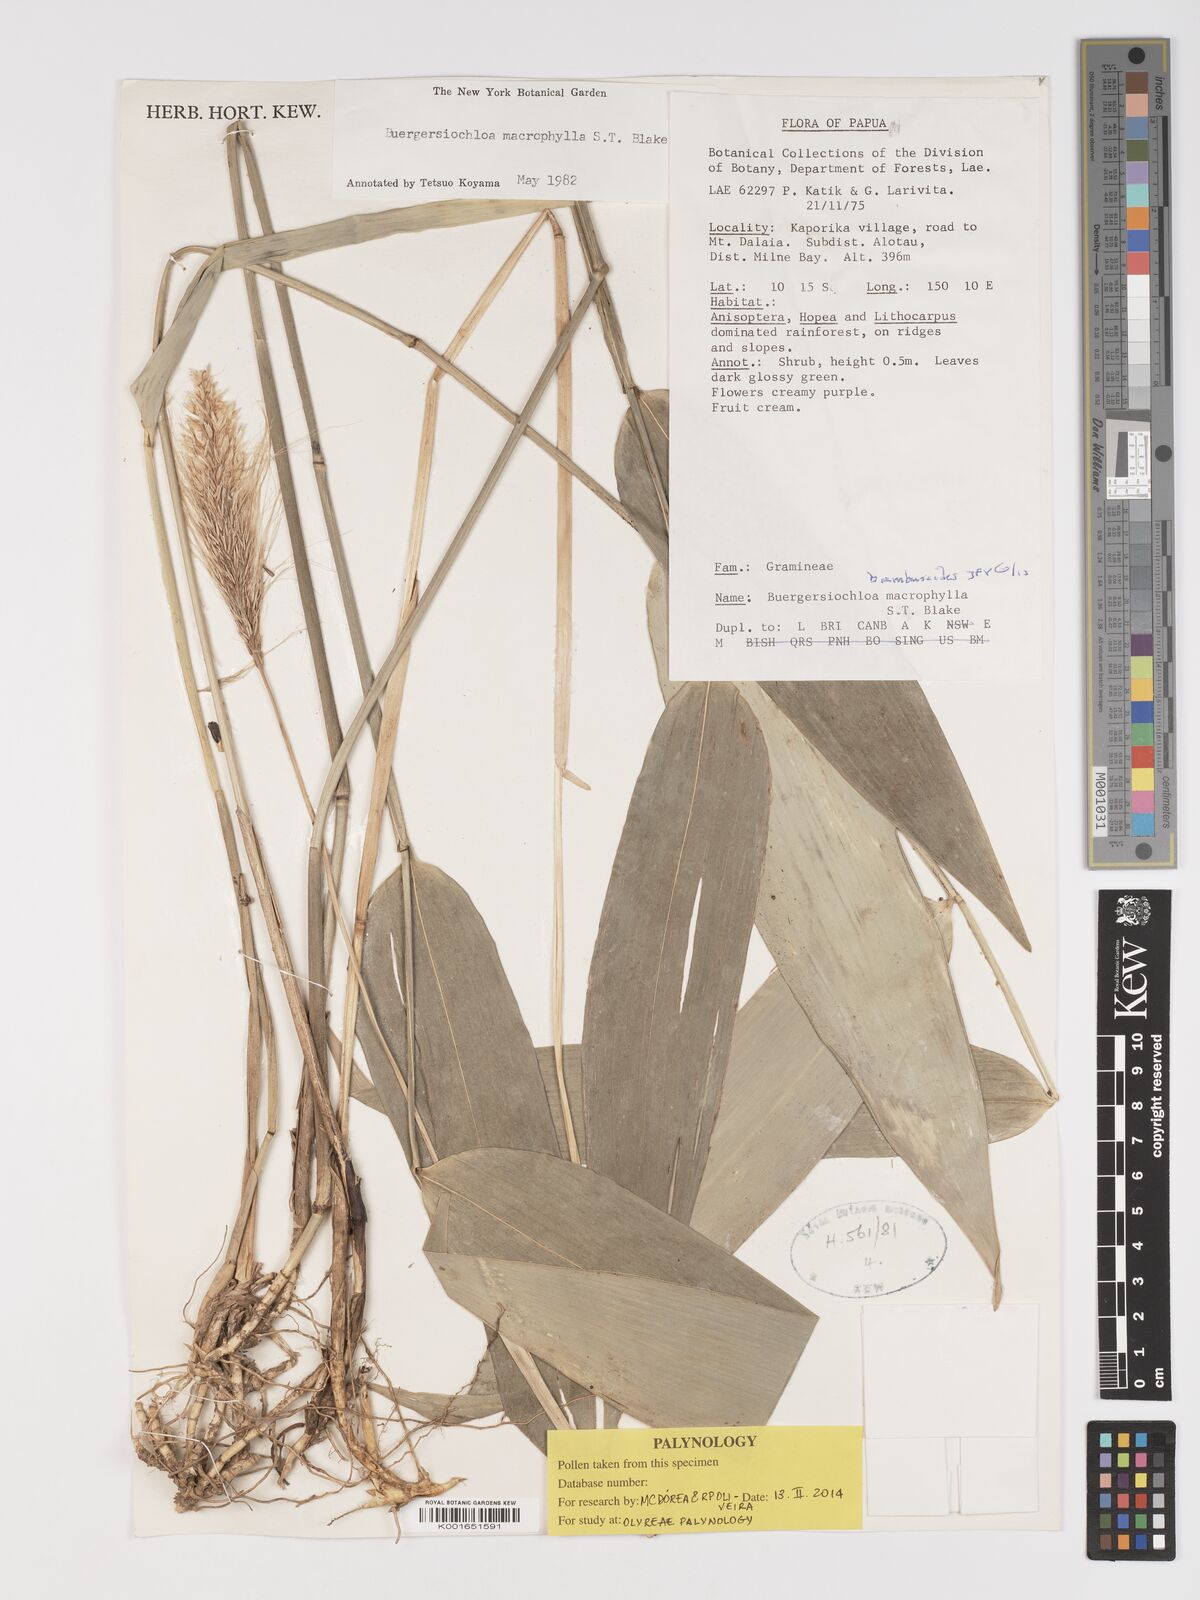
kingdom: Plantae
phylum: Tracheophyta
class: Liliopsida
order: Poales
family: Poaceae
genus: Buergersiochloa
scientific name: Buergersiochloa bambusoides
